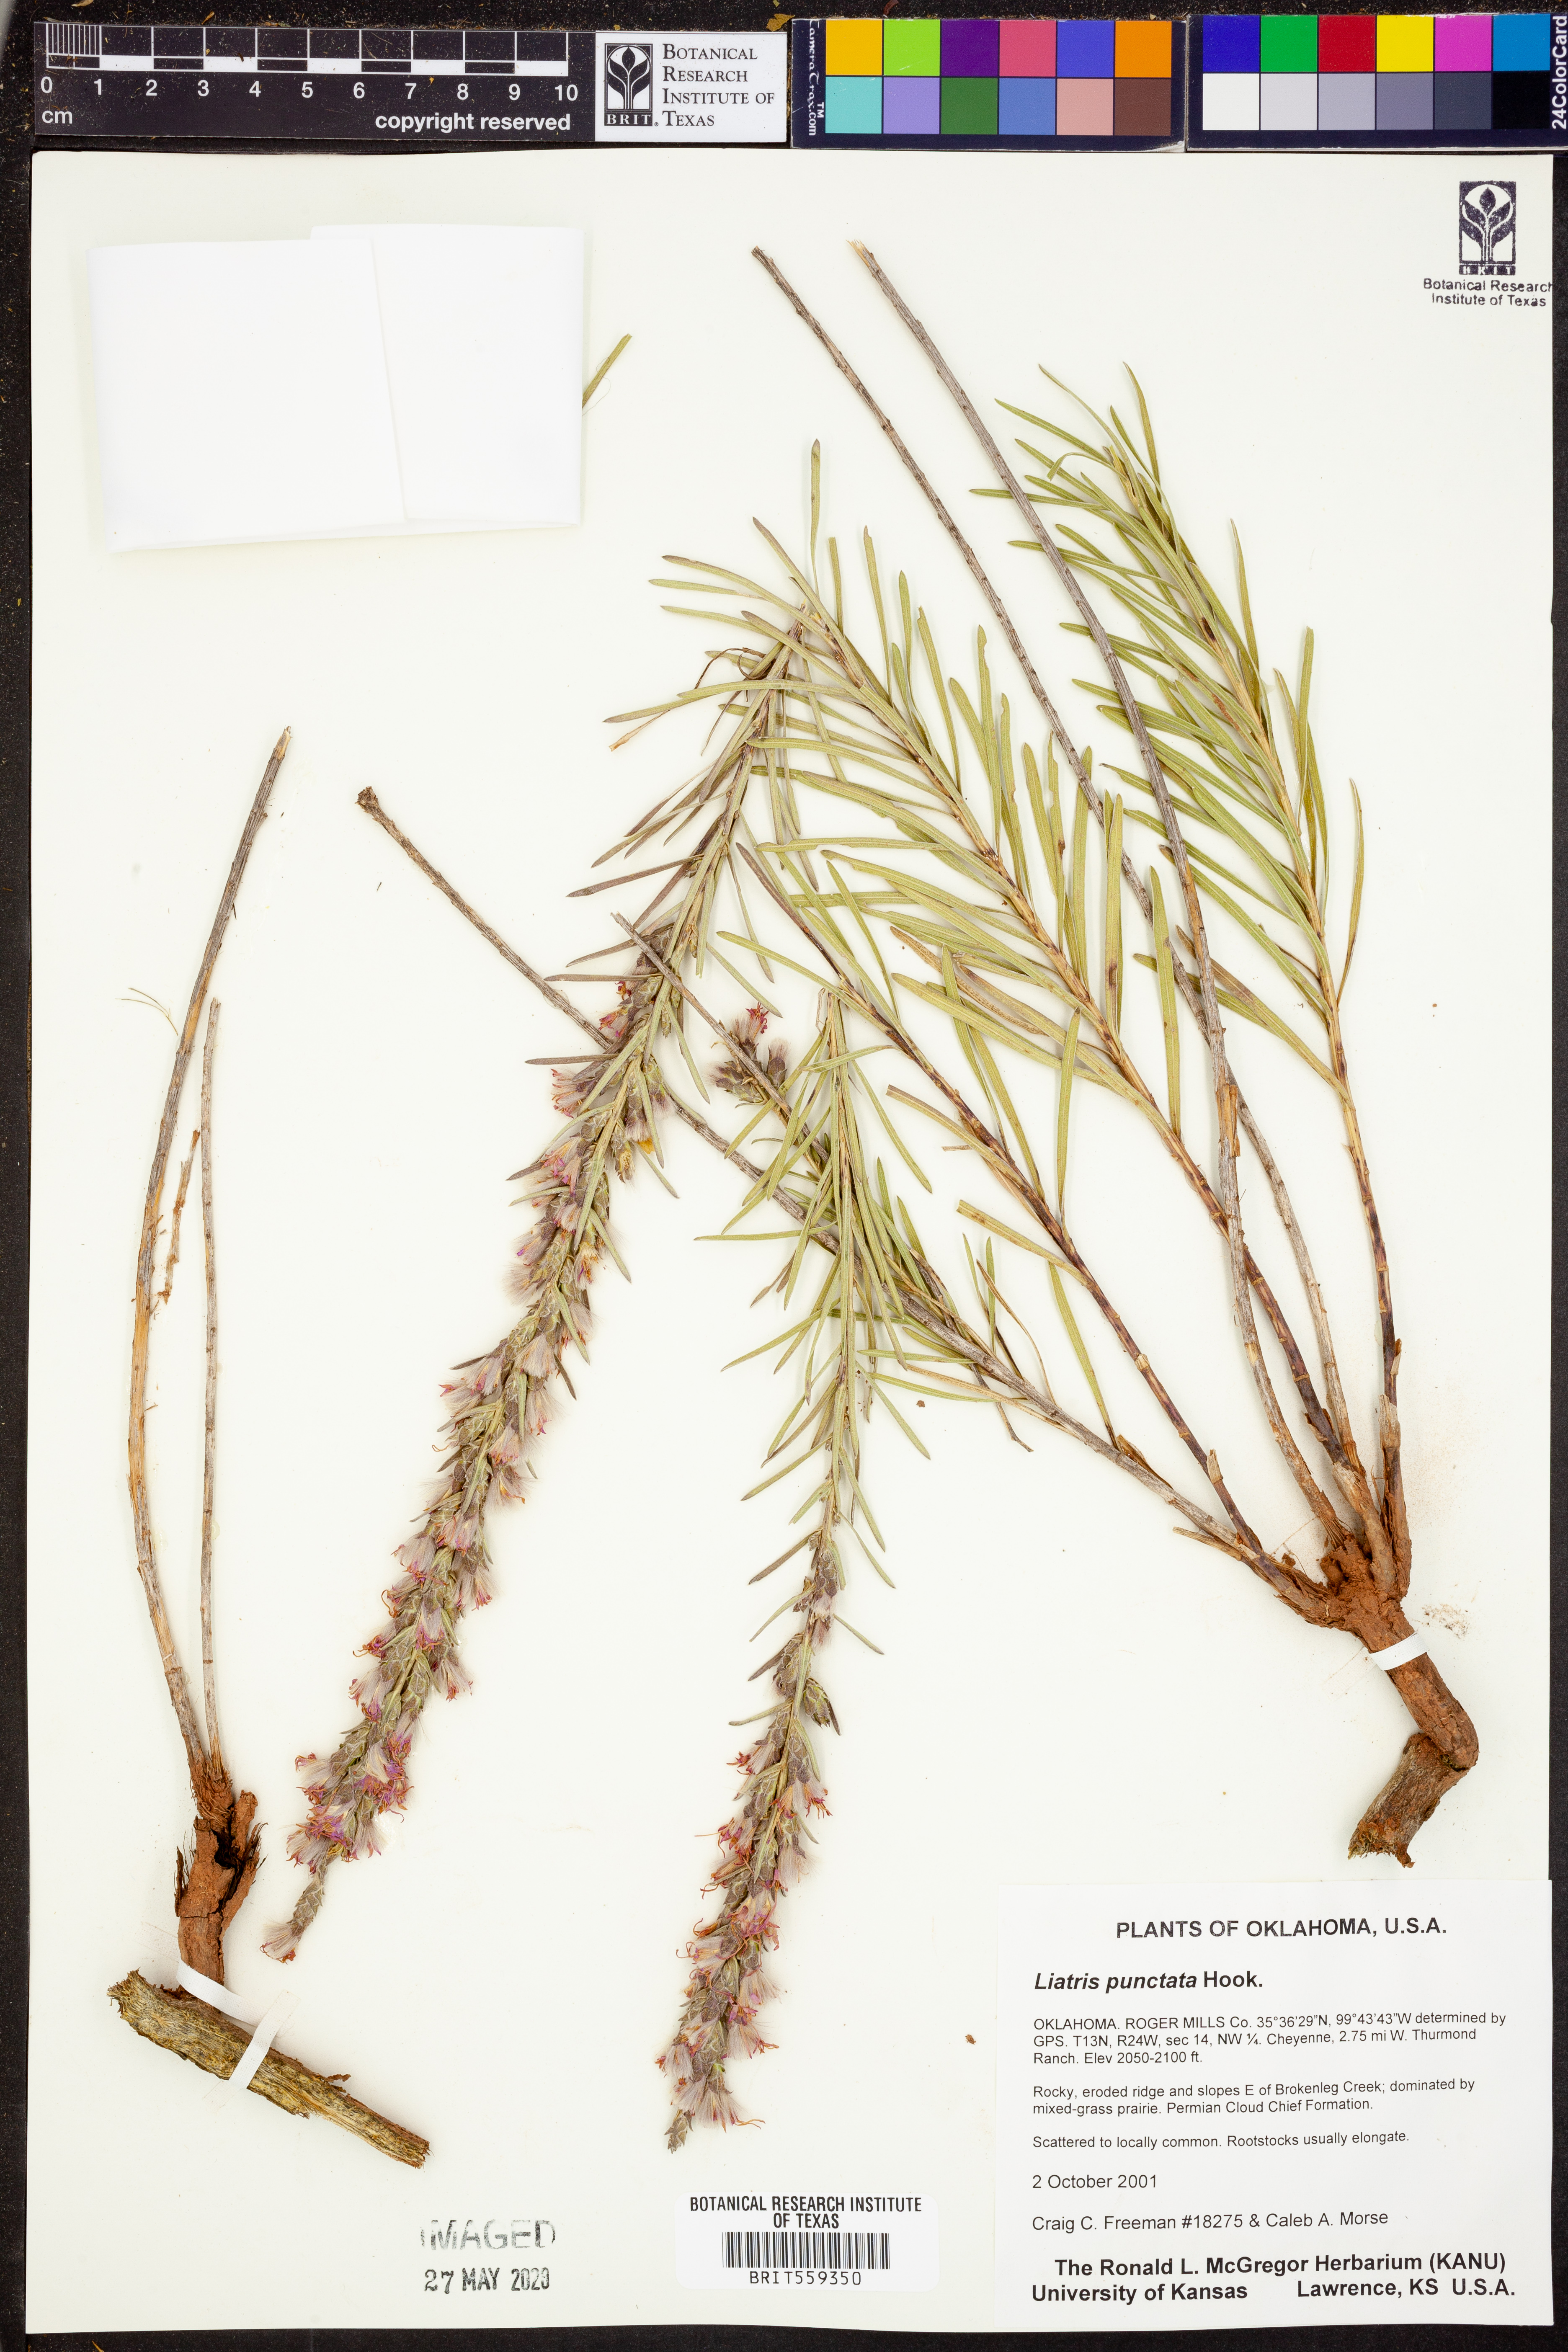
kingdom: Plantae
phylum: Tracheophyta
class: Magnoliopsida
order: Asterales
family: Asteraceae
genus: Liatris
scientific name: Liatris punctata
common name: Dotted gayfeather
